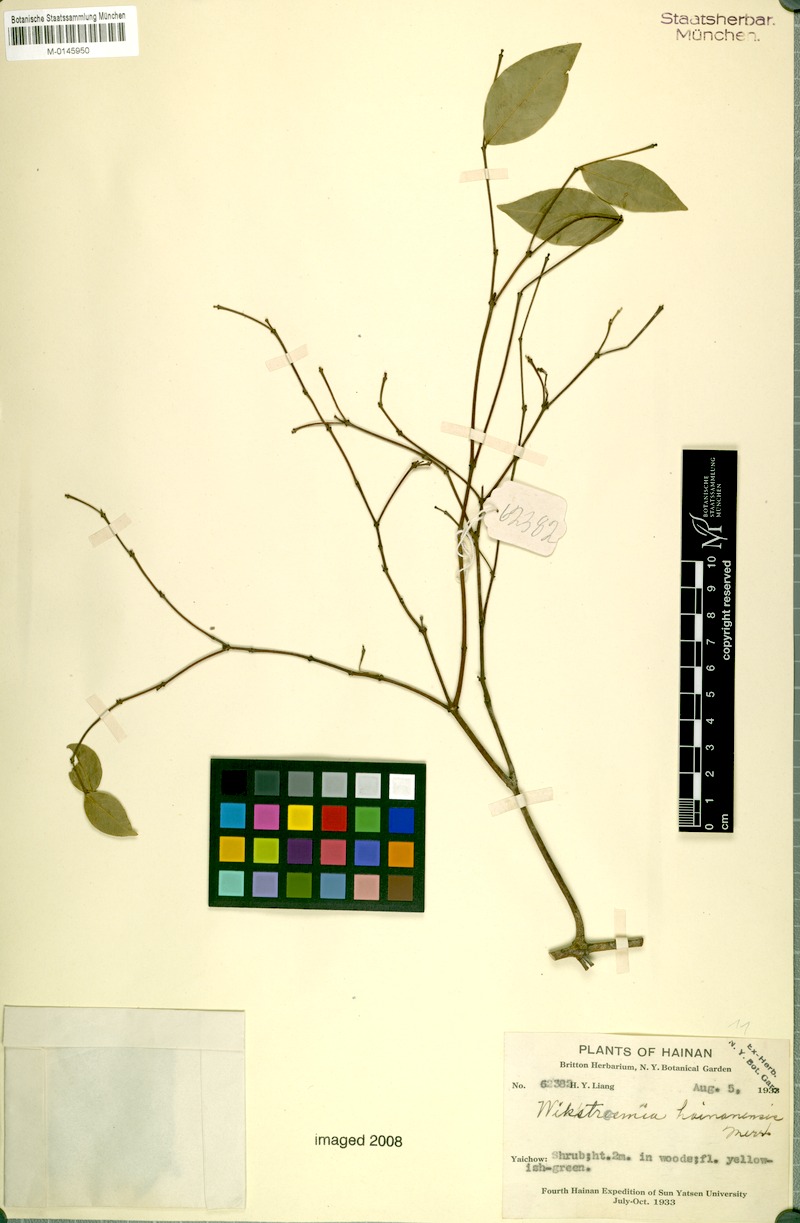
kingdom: Plantae
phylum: Tracheophyta
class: Magnoliopsida
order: Malvales
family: Thymelaeaceae
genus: Wikstroemia
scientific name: Wikstroemia hainanensis
